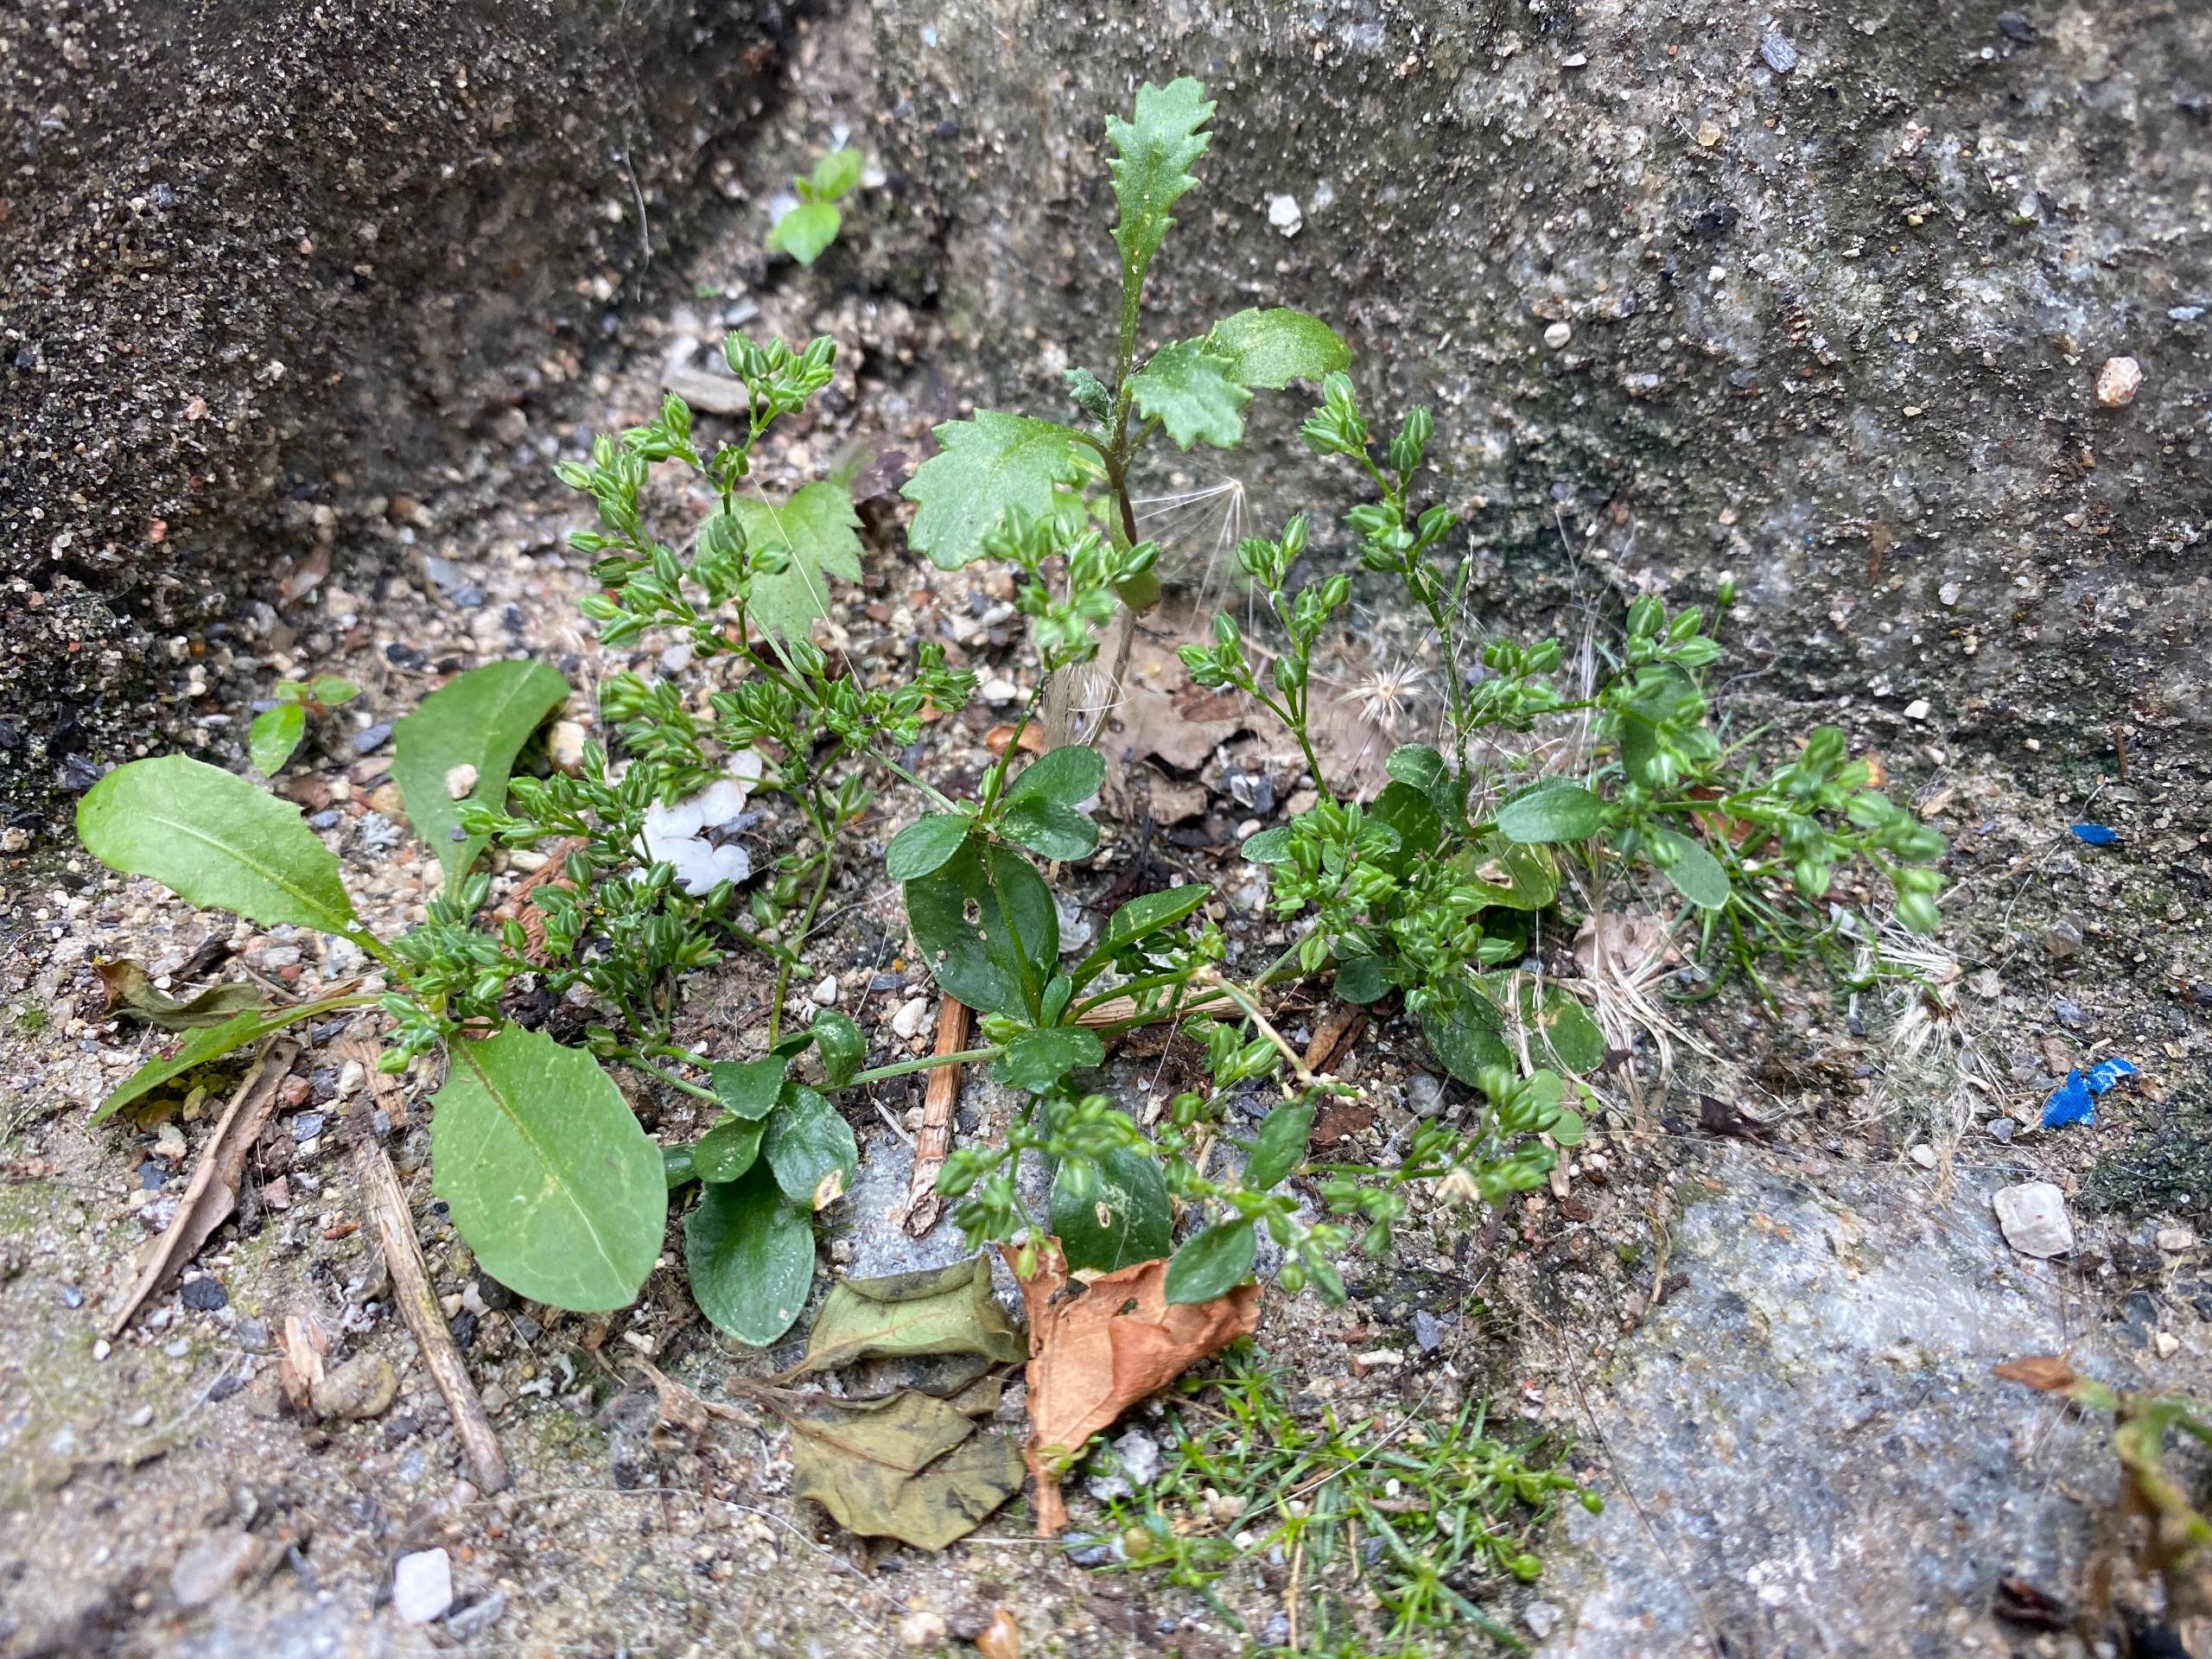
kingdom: Plantae
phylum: Tracheophyta
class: Magnoliopsida
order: Caryophyllales
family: Caryophyllaceae
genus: Polycarpon
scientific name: Polycarpon tetraphyllum
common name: Firbladet mangefrø
